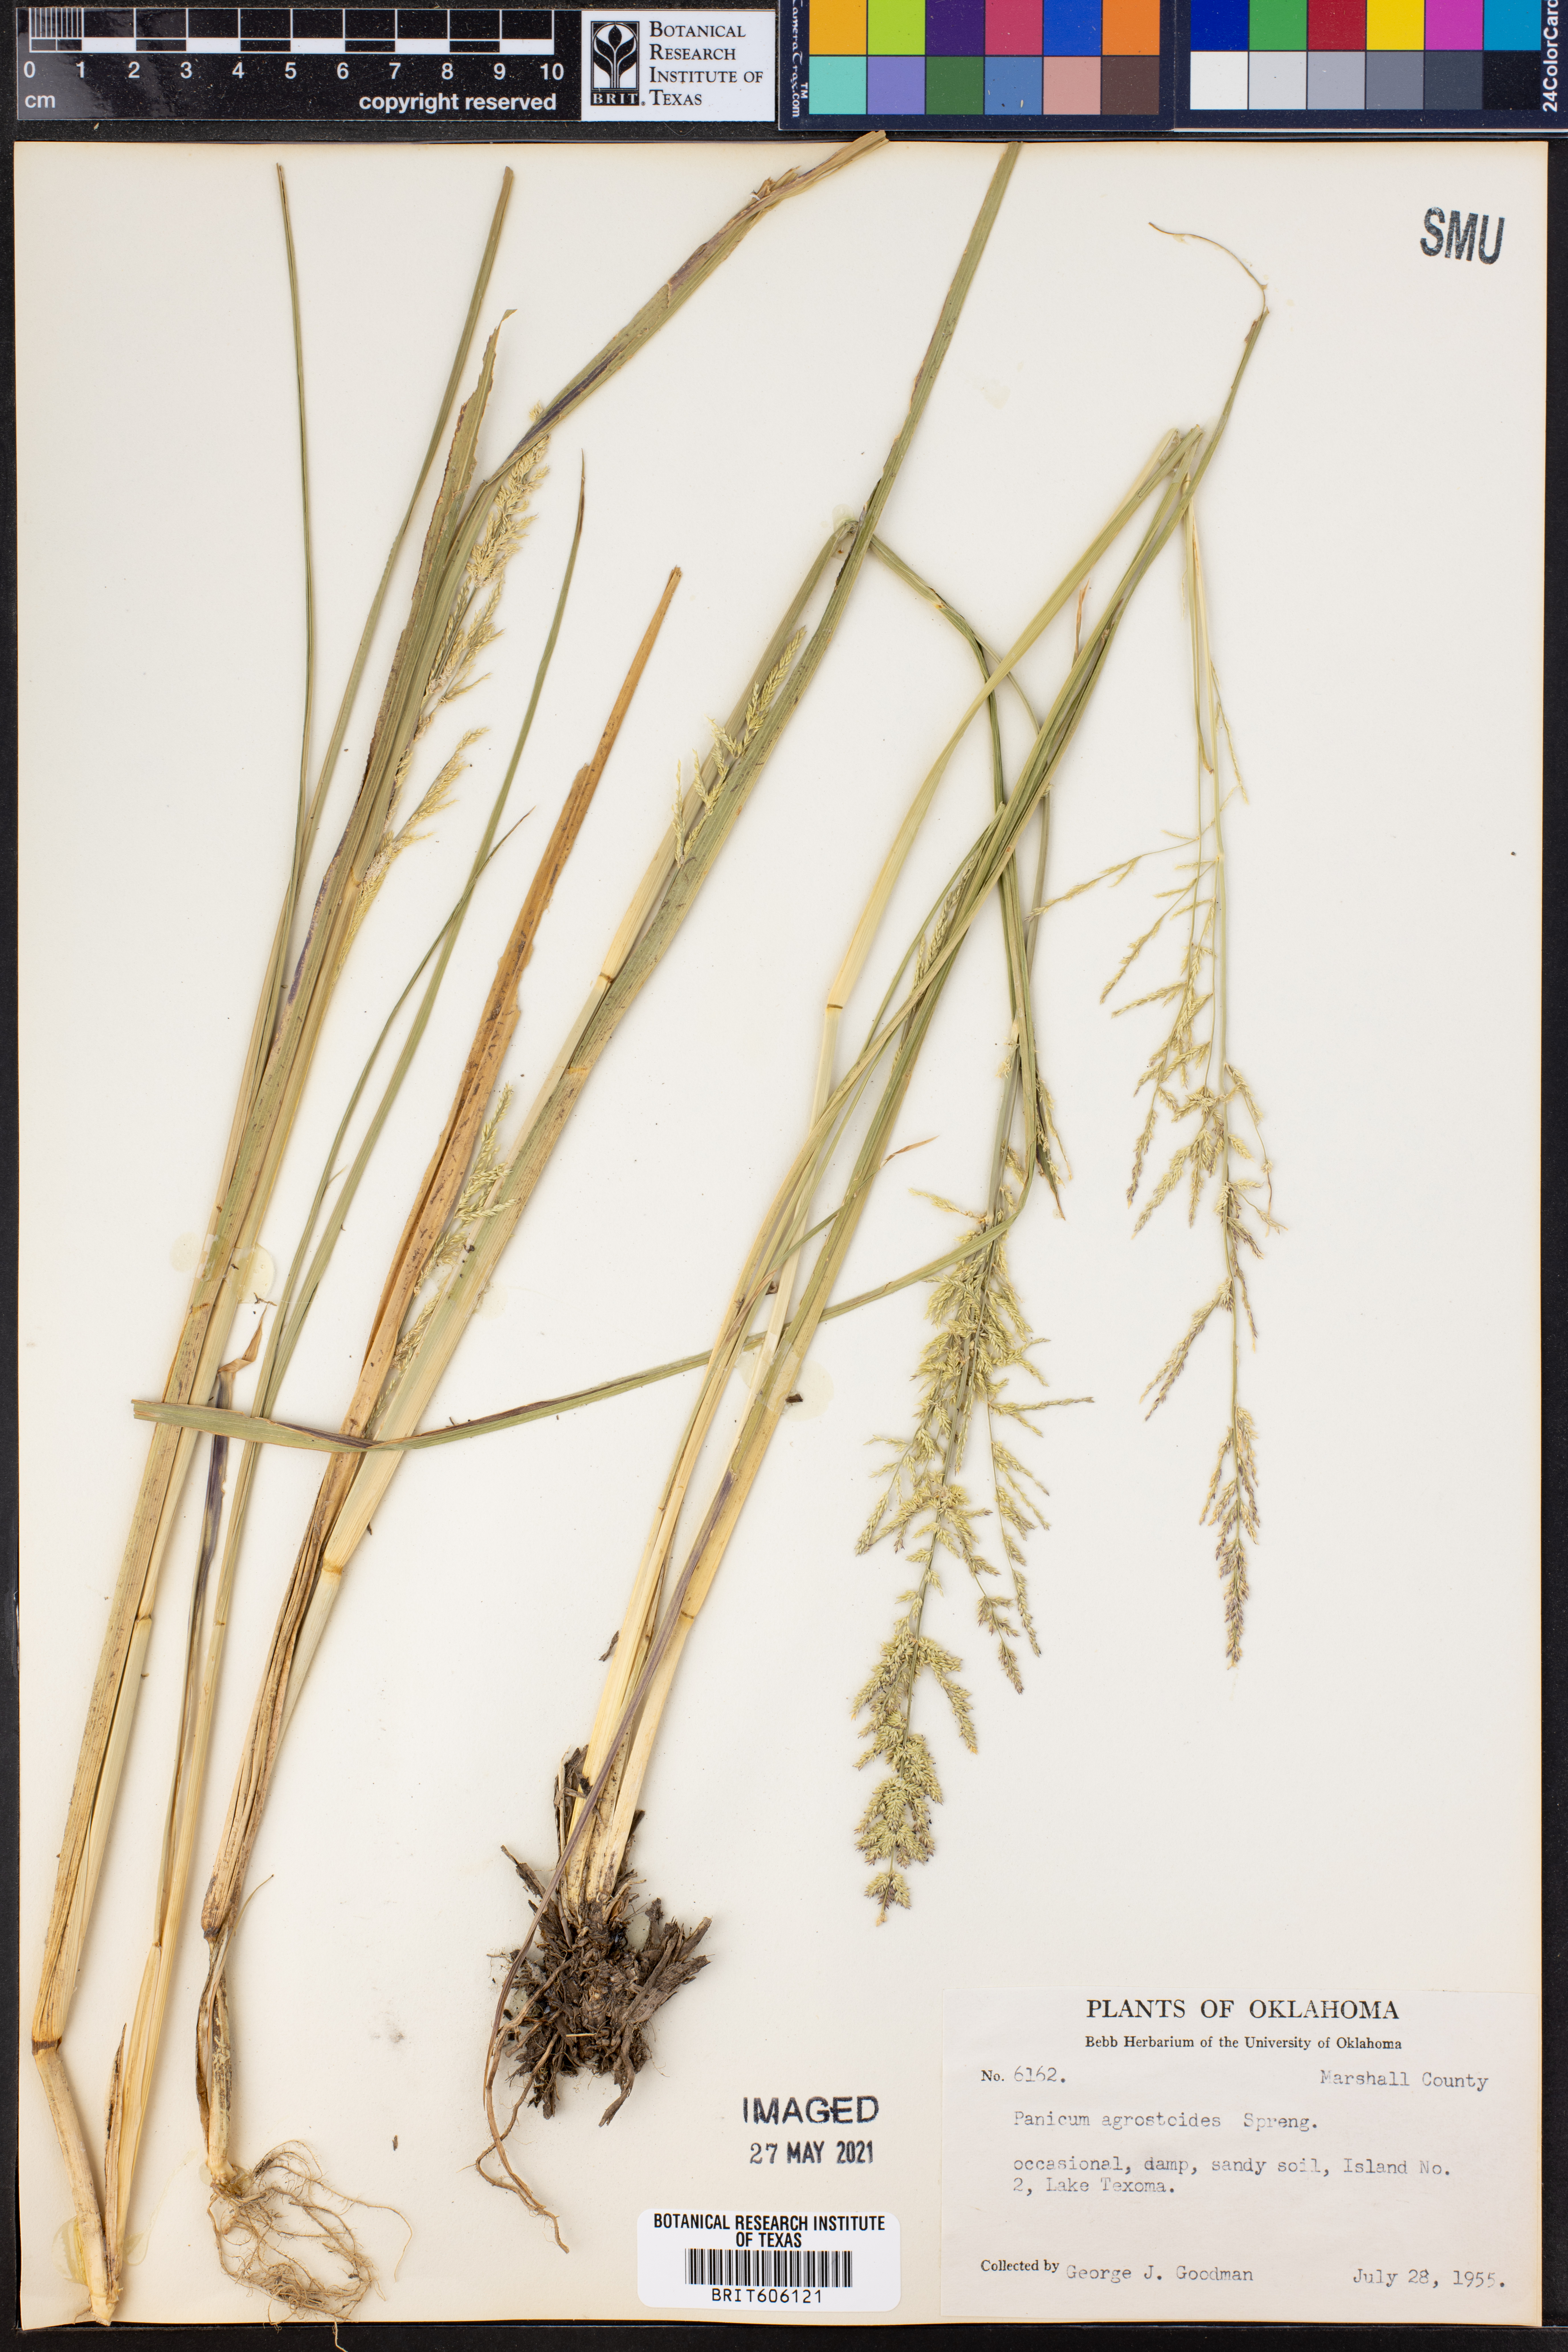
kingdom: Plantae
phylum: Tracheophyta
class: Liliopsida
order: Poales
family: Poaceae
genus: Steinchisma
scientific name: Steinchisma laxum
